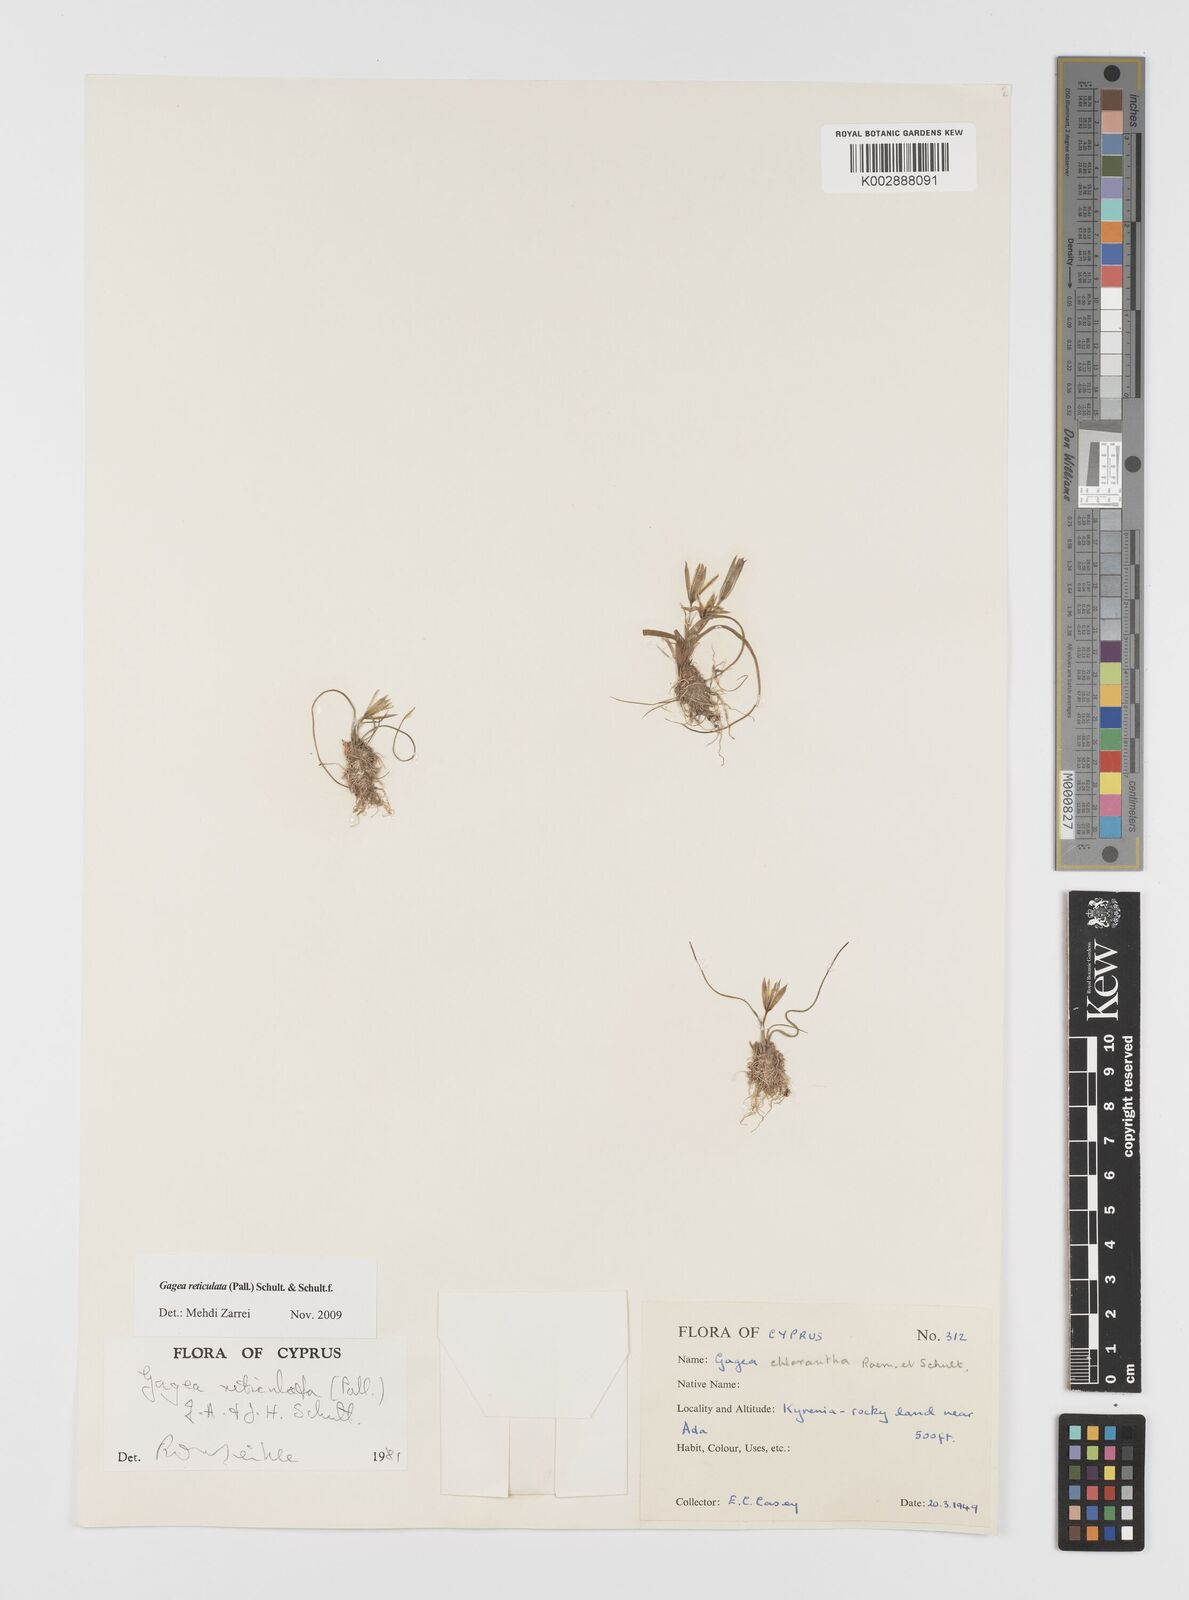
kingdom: Plantae
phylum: Tracheophyta
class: Liliopsida
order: Liliales
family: Liliaceae
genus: Gagea
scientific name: Gagea reticulata
